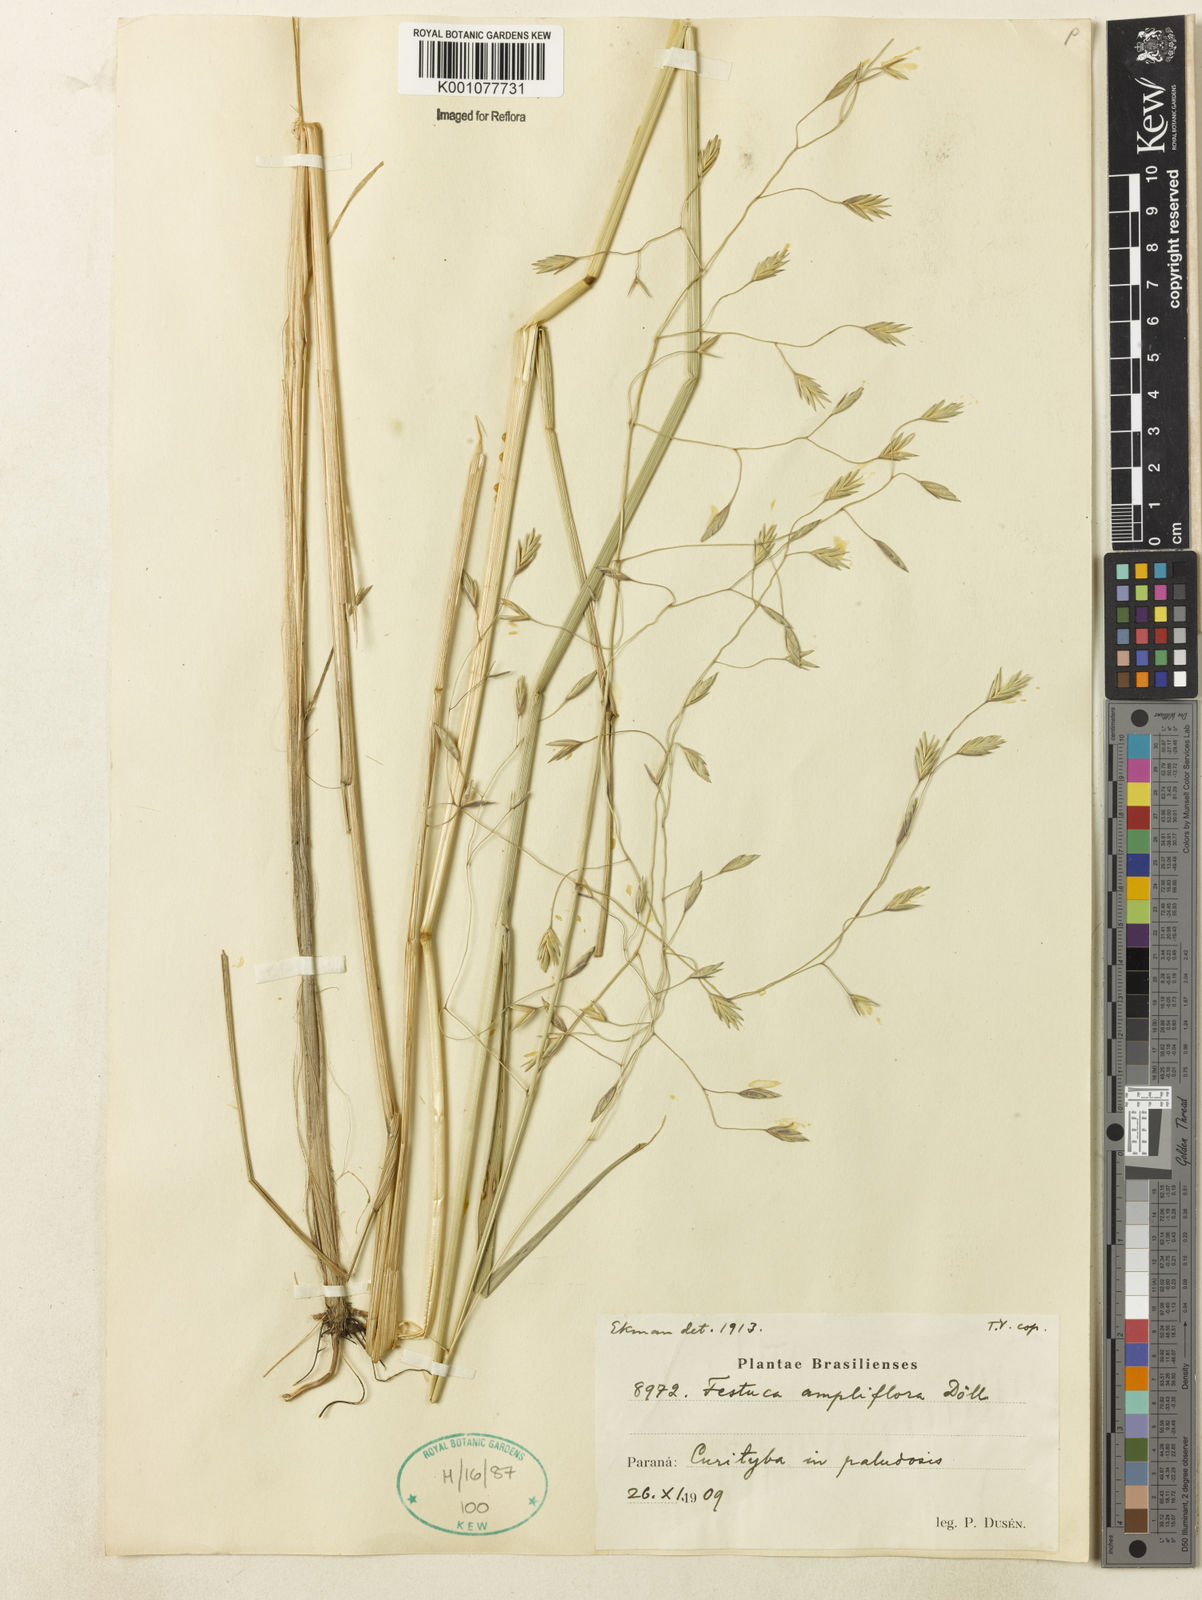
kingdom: Plantae
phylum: Tracheophyta
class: Liliopsida
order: Poales
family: Poaceae
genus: Festuca
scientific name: Festuca fimbriata
